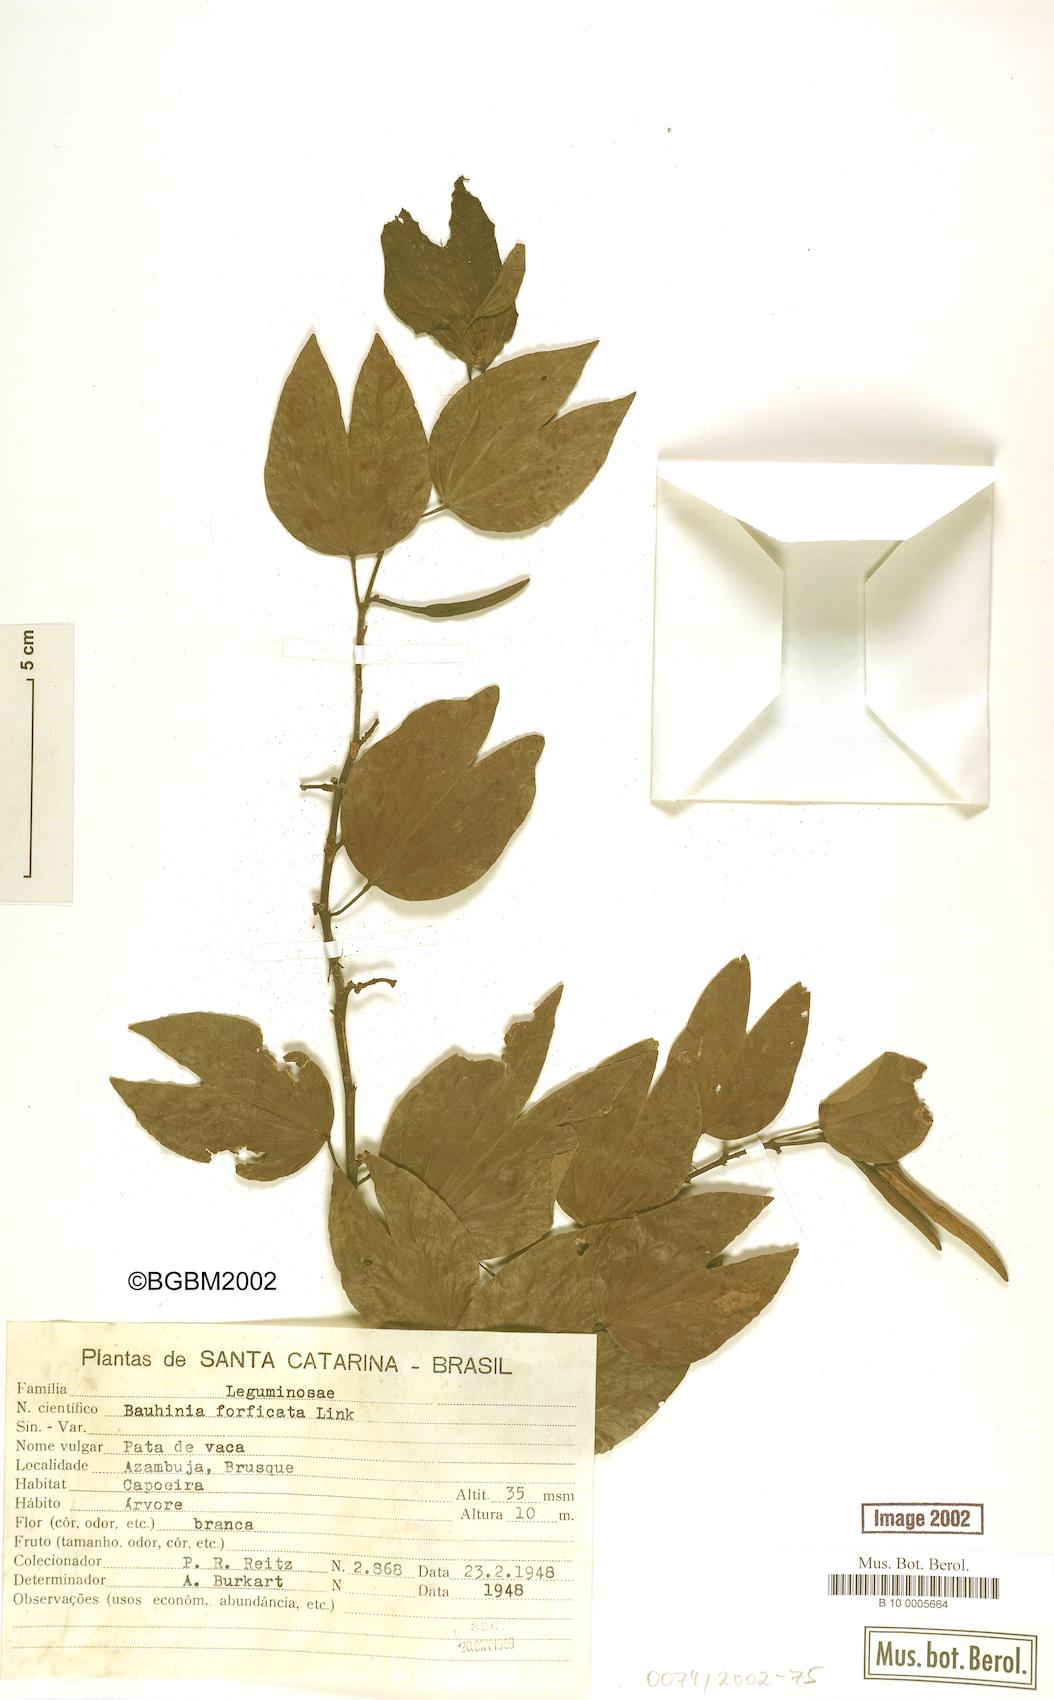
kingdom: Plantae
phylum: Tracheophyta
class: Magnoliopsida
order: Fabales
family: Fabaceae
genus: Bauhinia
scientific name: Bauhinia forficata
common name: Orchid tree
